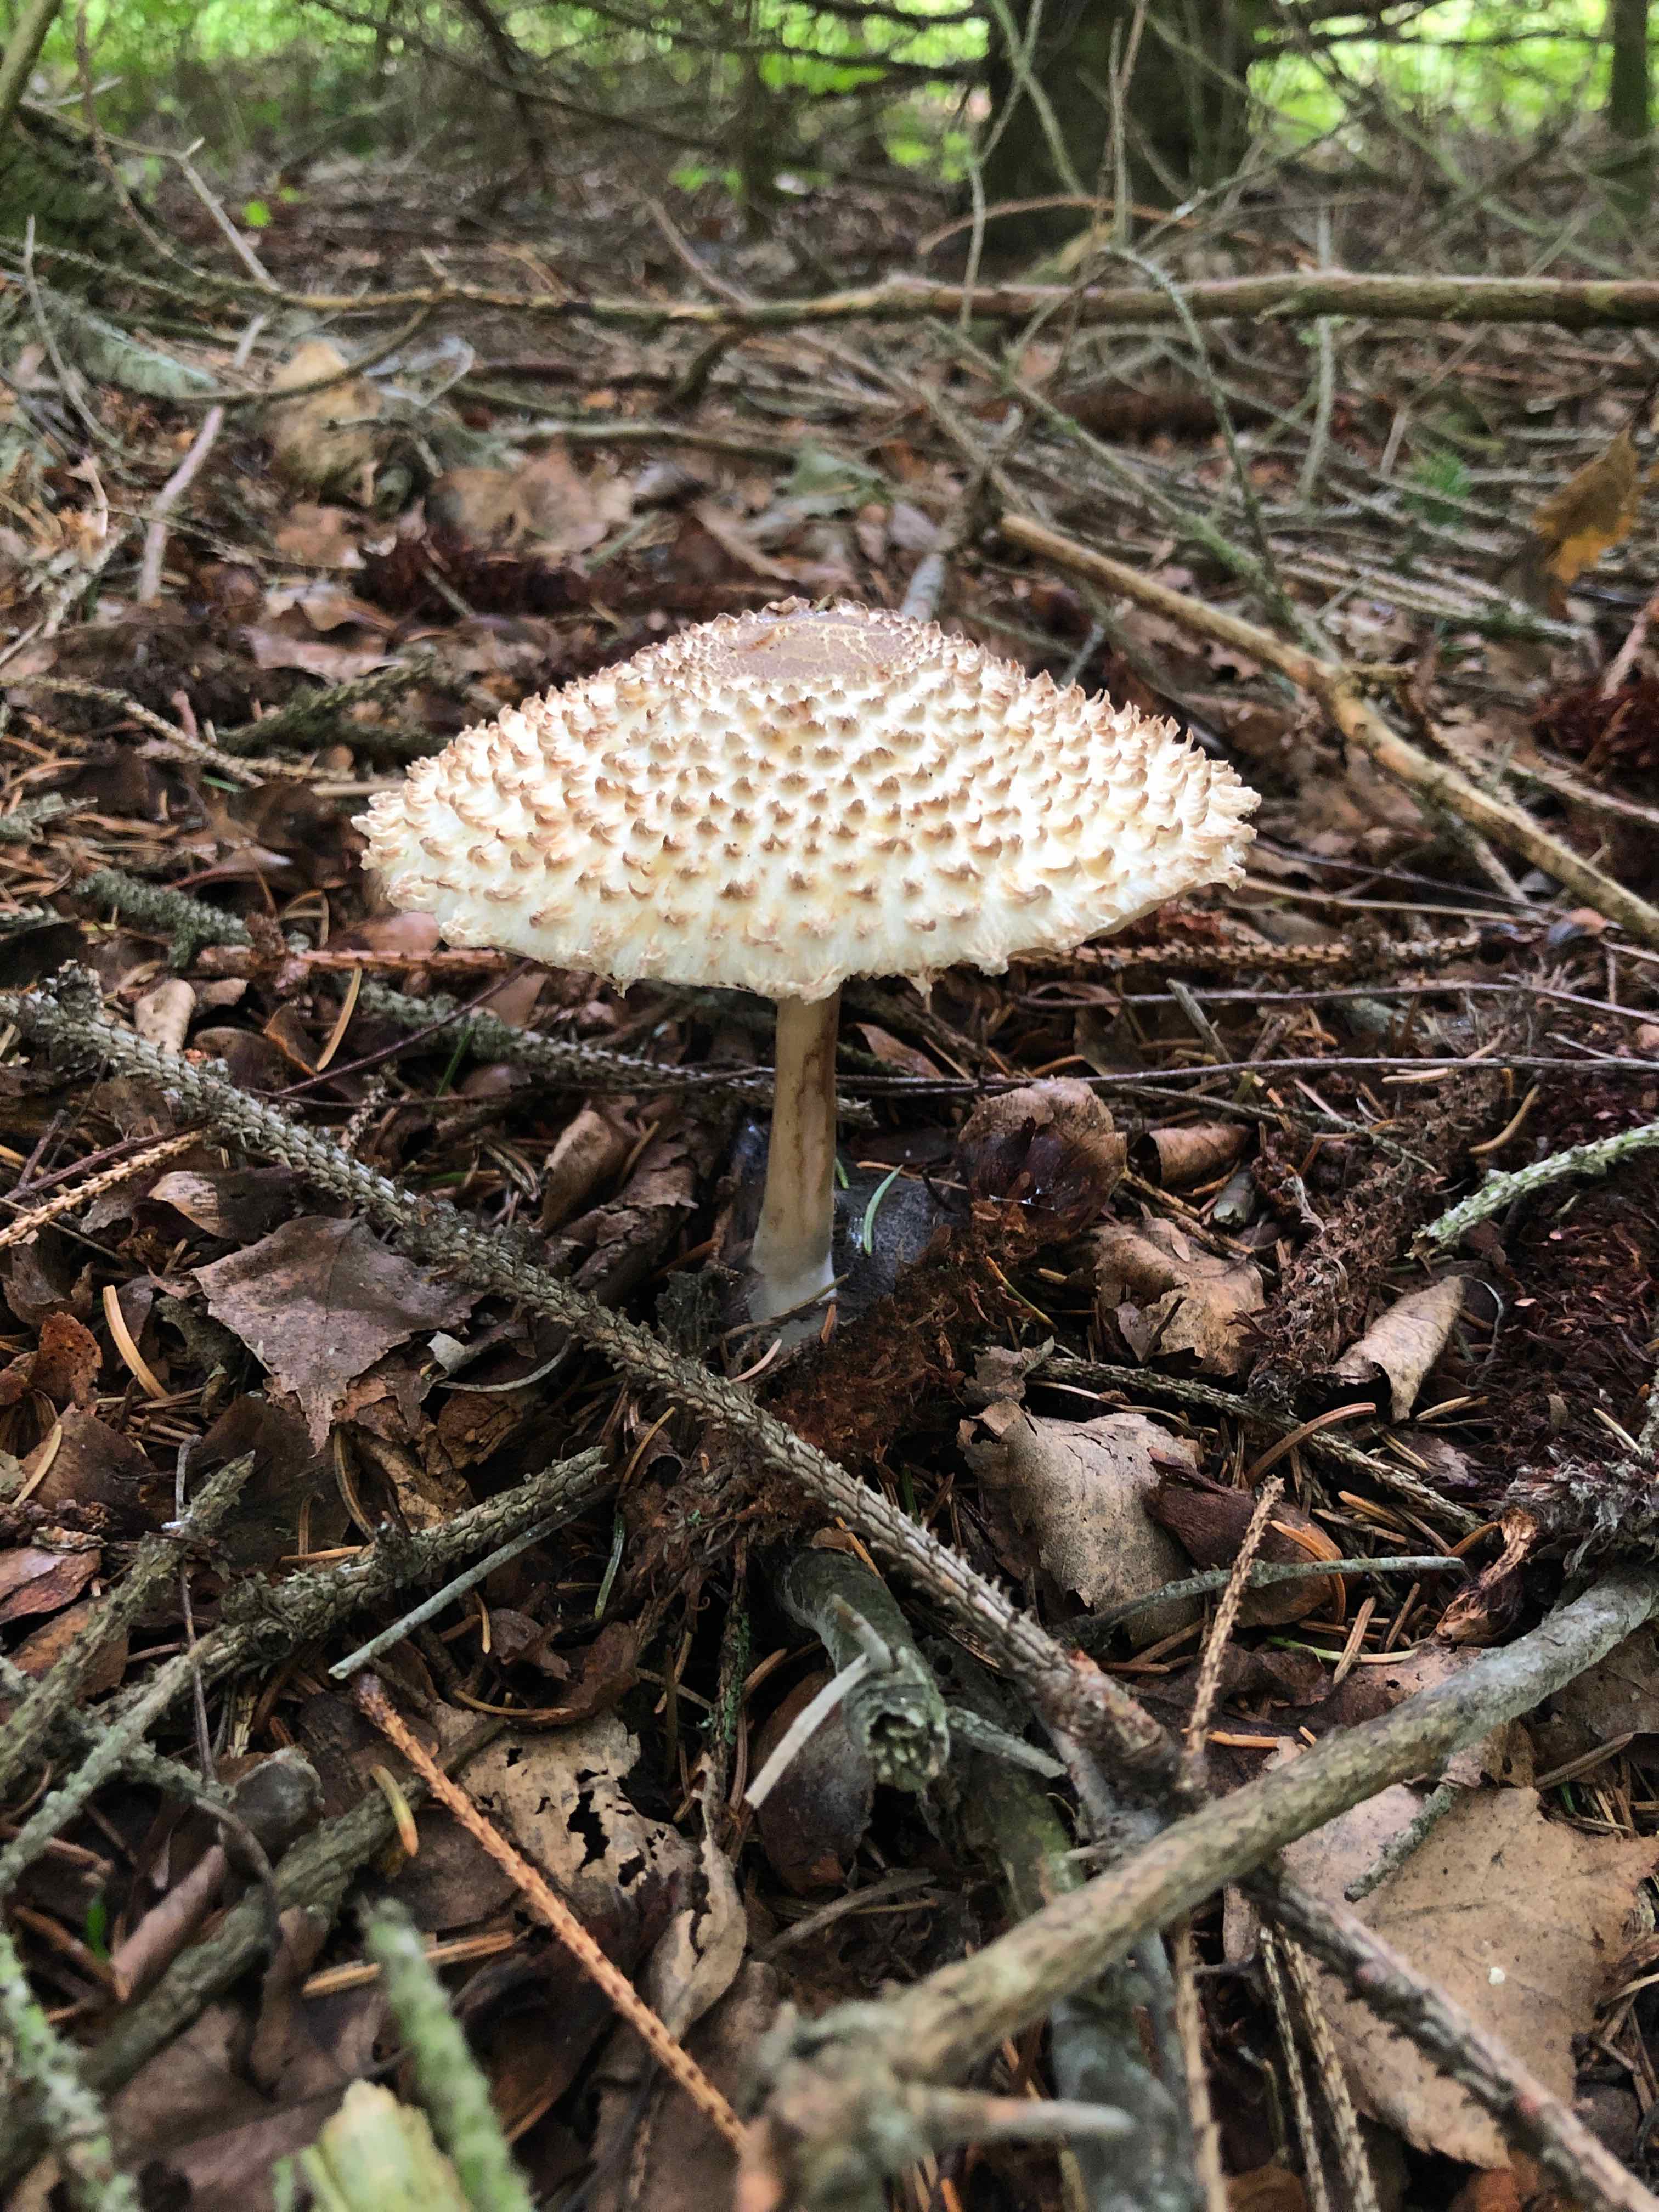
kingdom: Fungi
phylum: Basidiomycota
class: Agaricomycetes
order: Agaricales
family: Agaricaceae
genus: Leucoagaricus
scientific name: Leucoagaricus nympharum
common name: gran-silkehat
